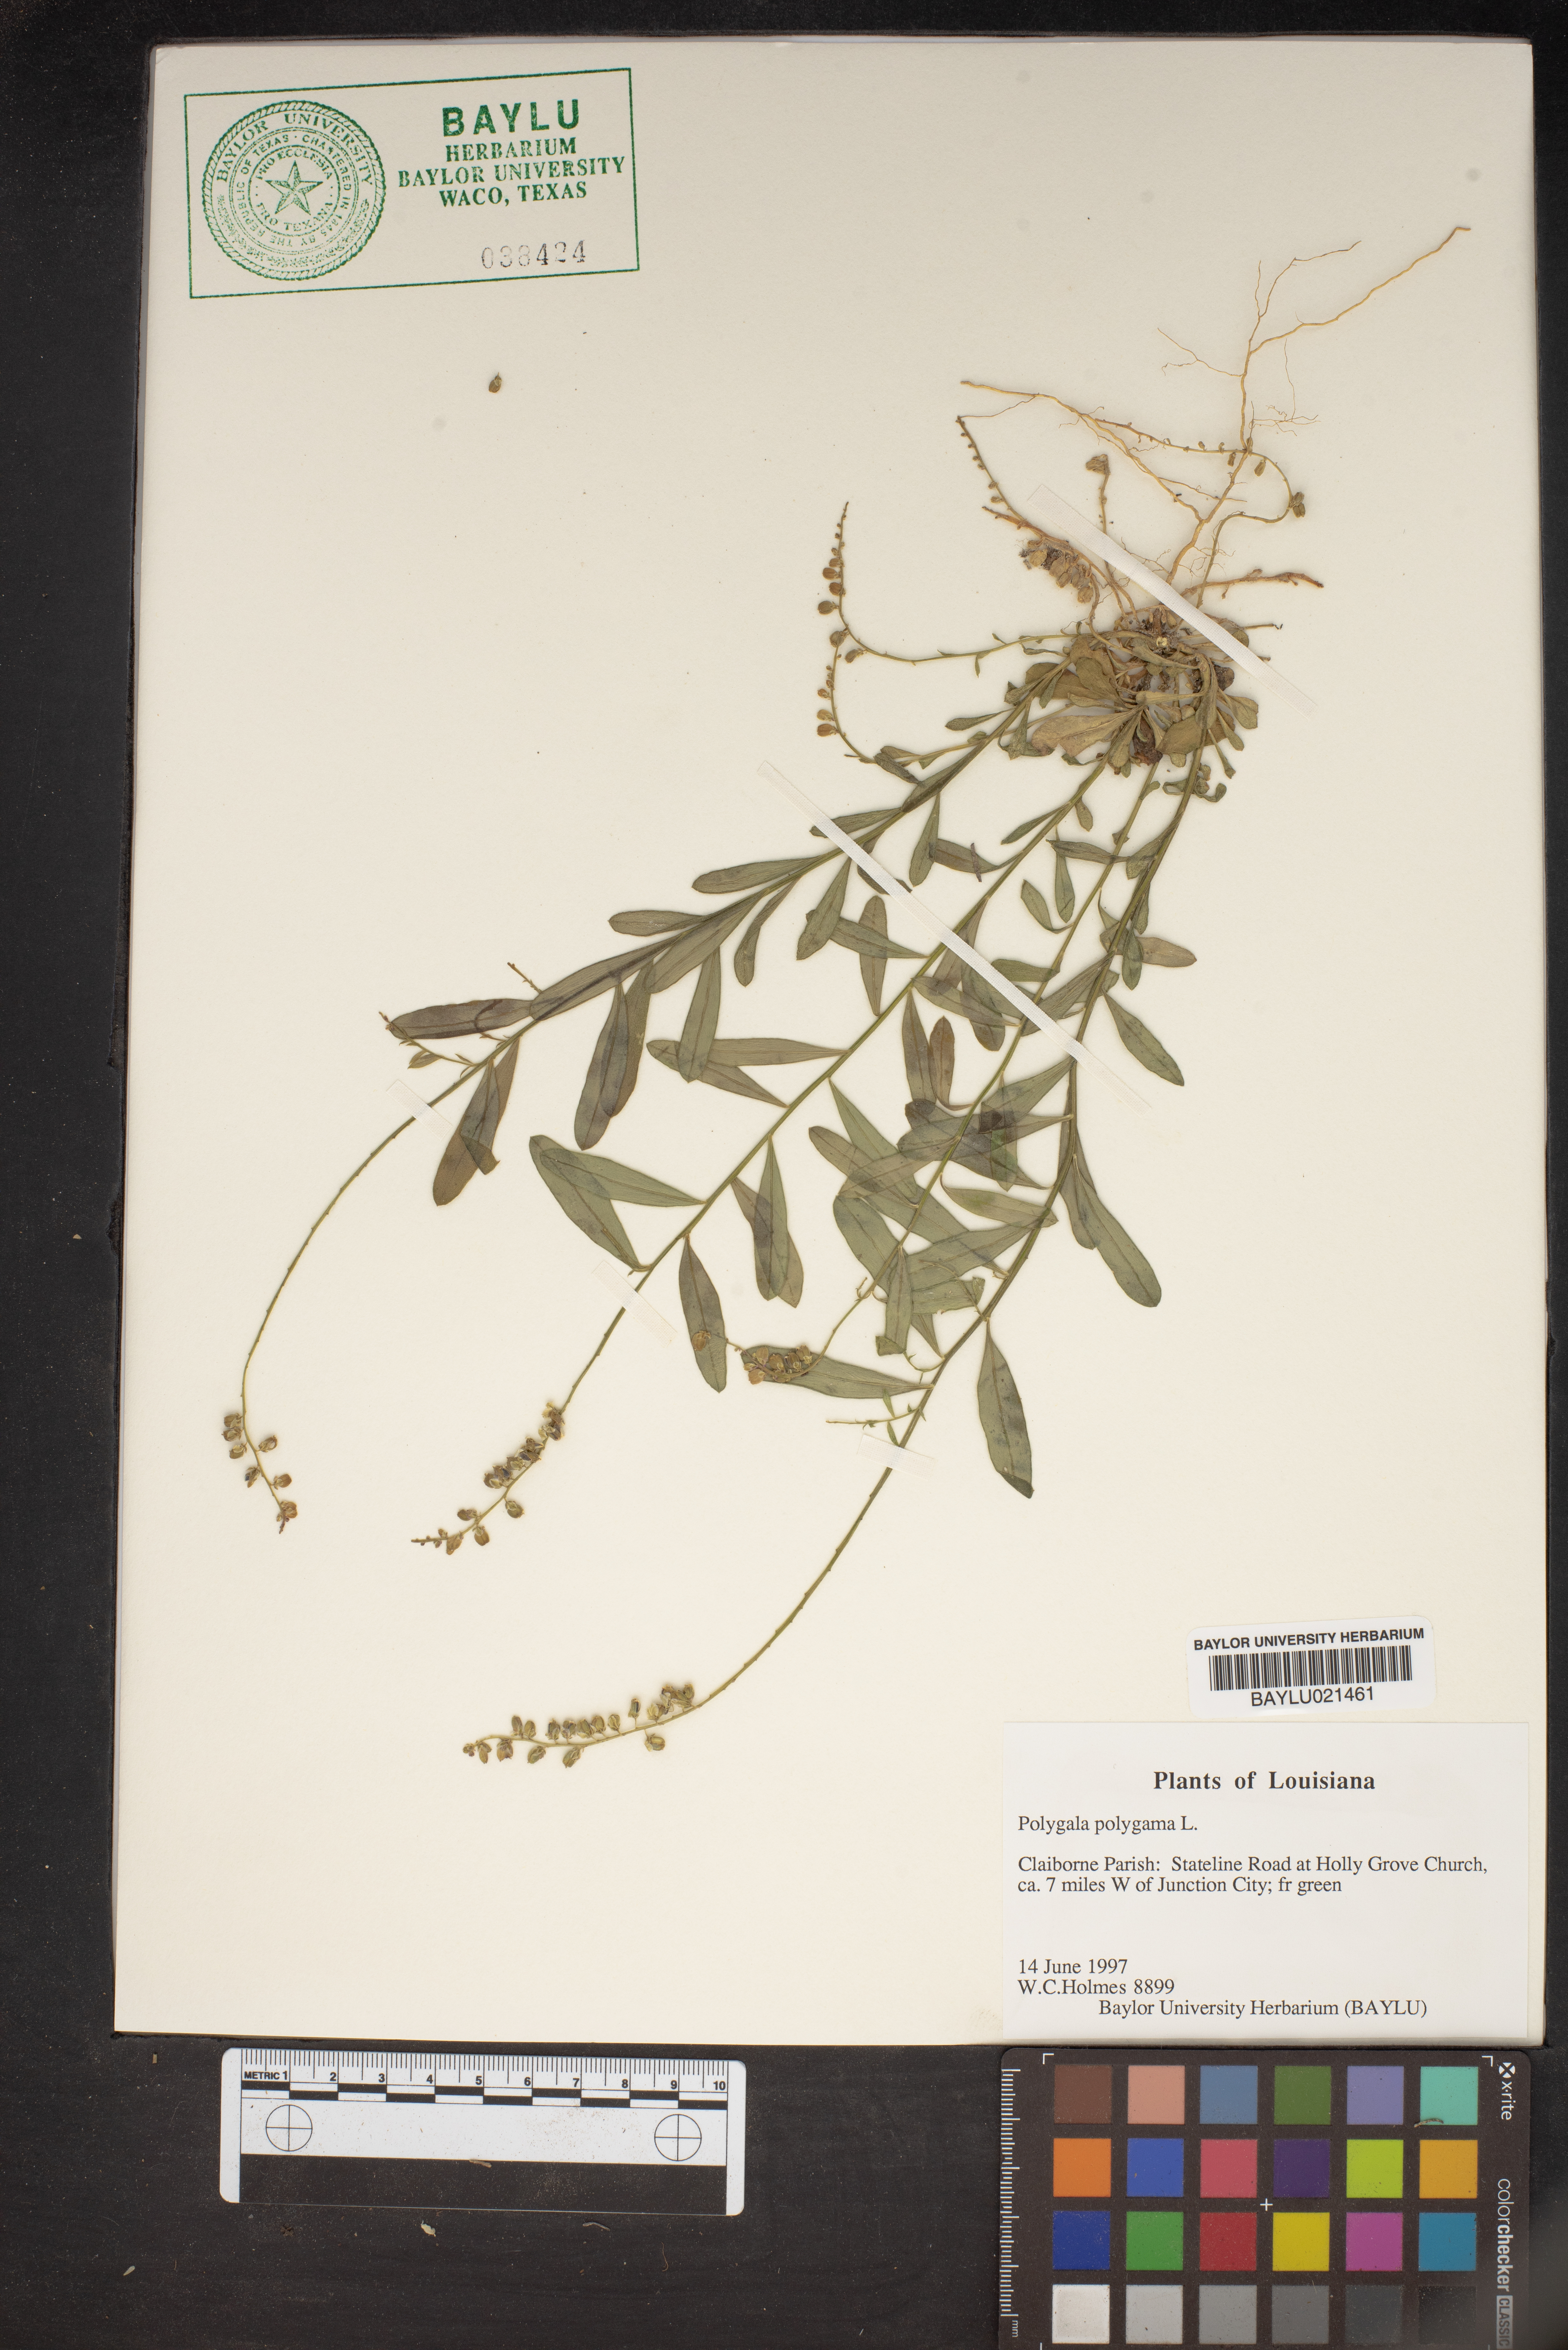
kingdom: Plantae
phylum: Tracheophyta
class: Magnoliopsida
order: Fabales
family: Polygalaceae
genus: Polygala
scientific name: Polygala polygama
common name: Bitter milkwort
